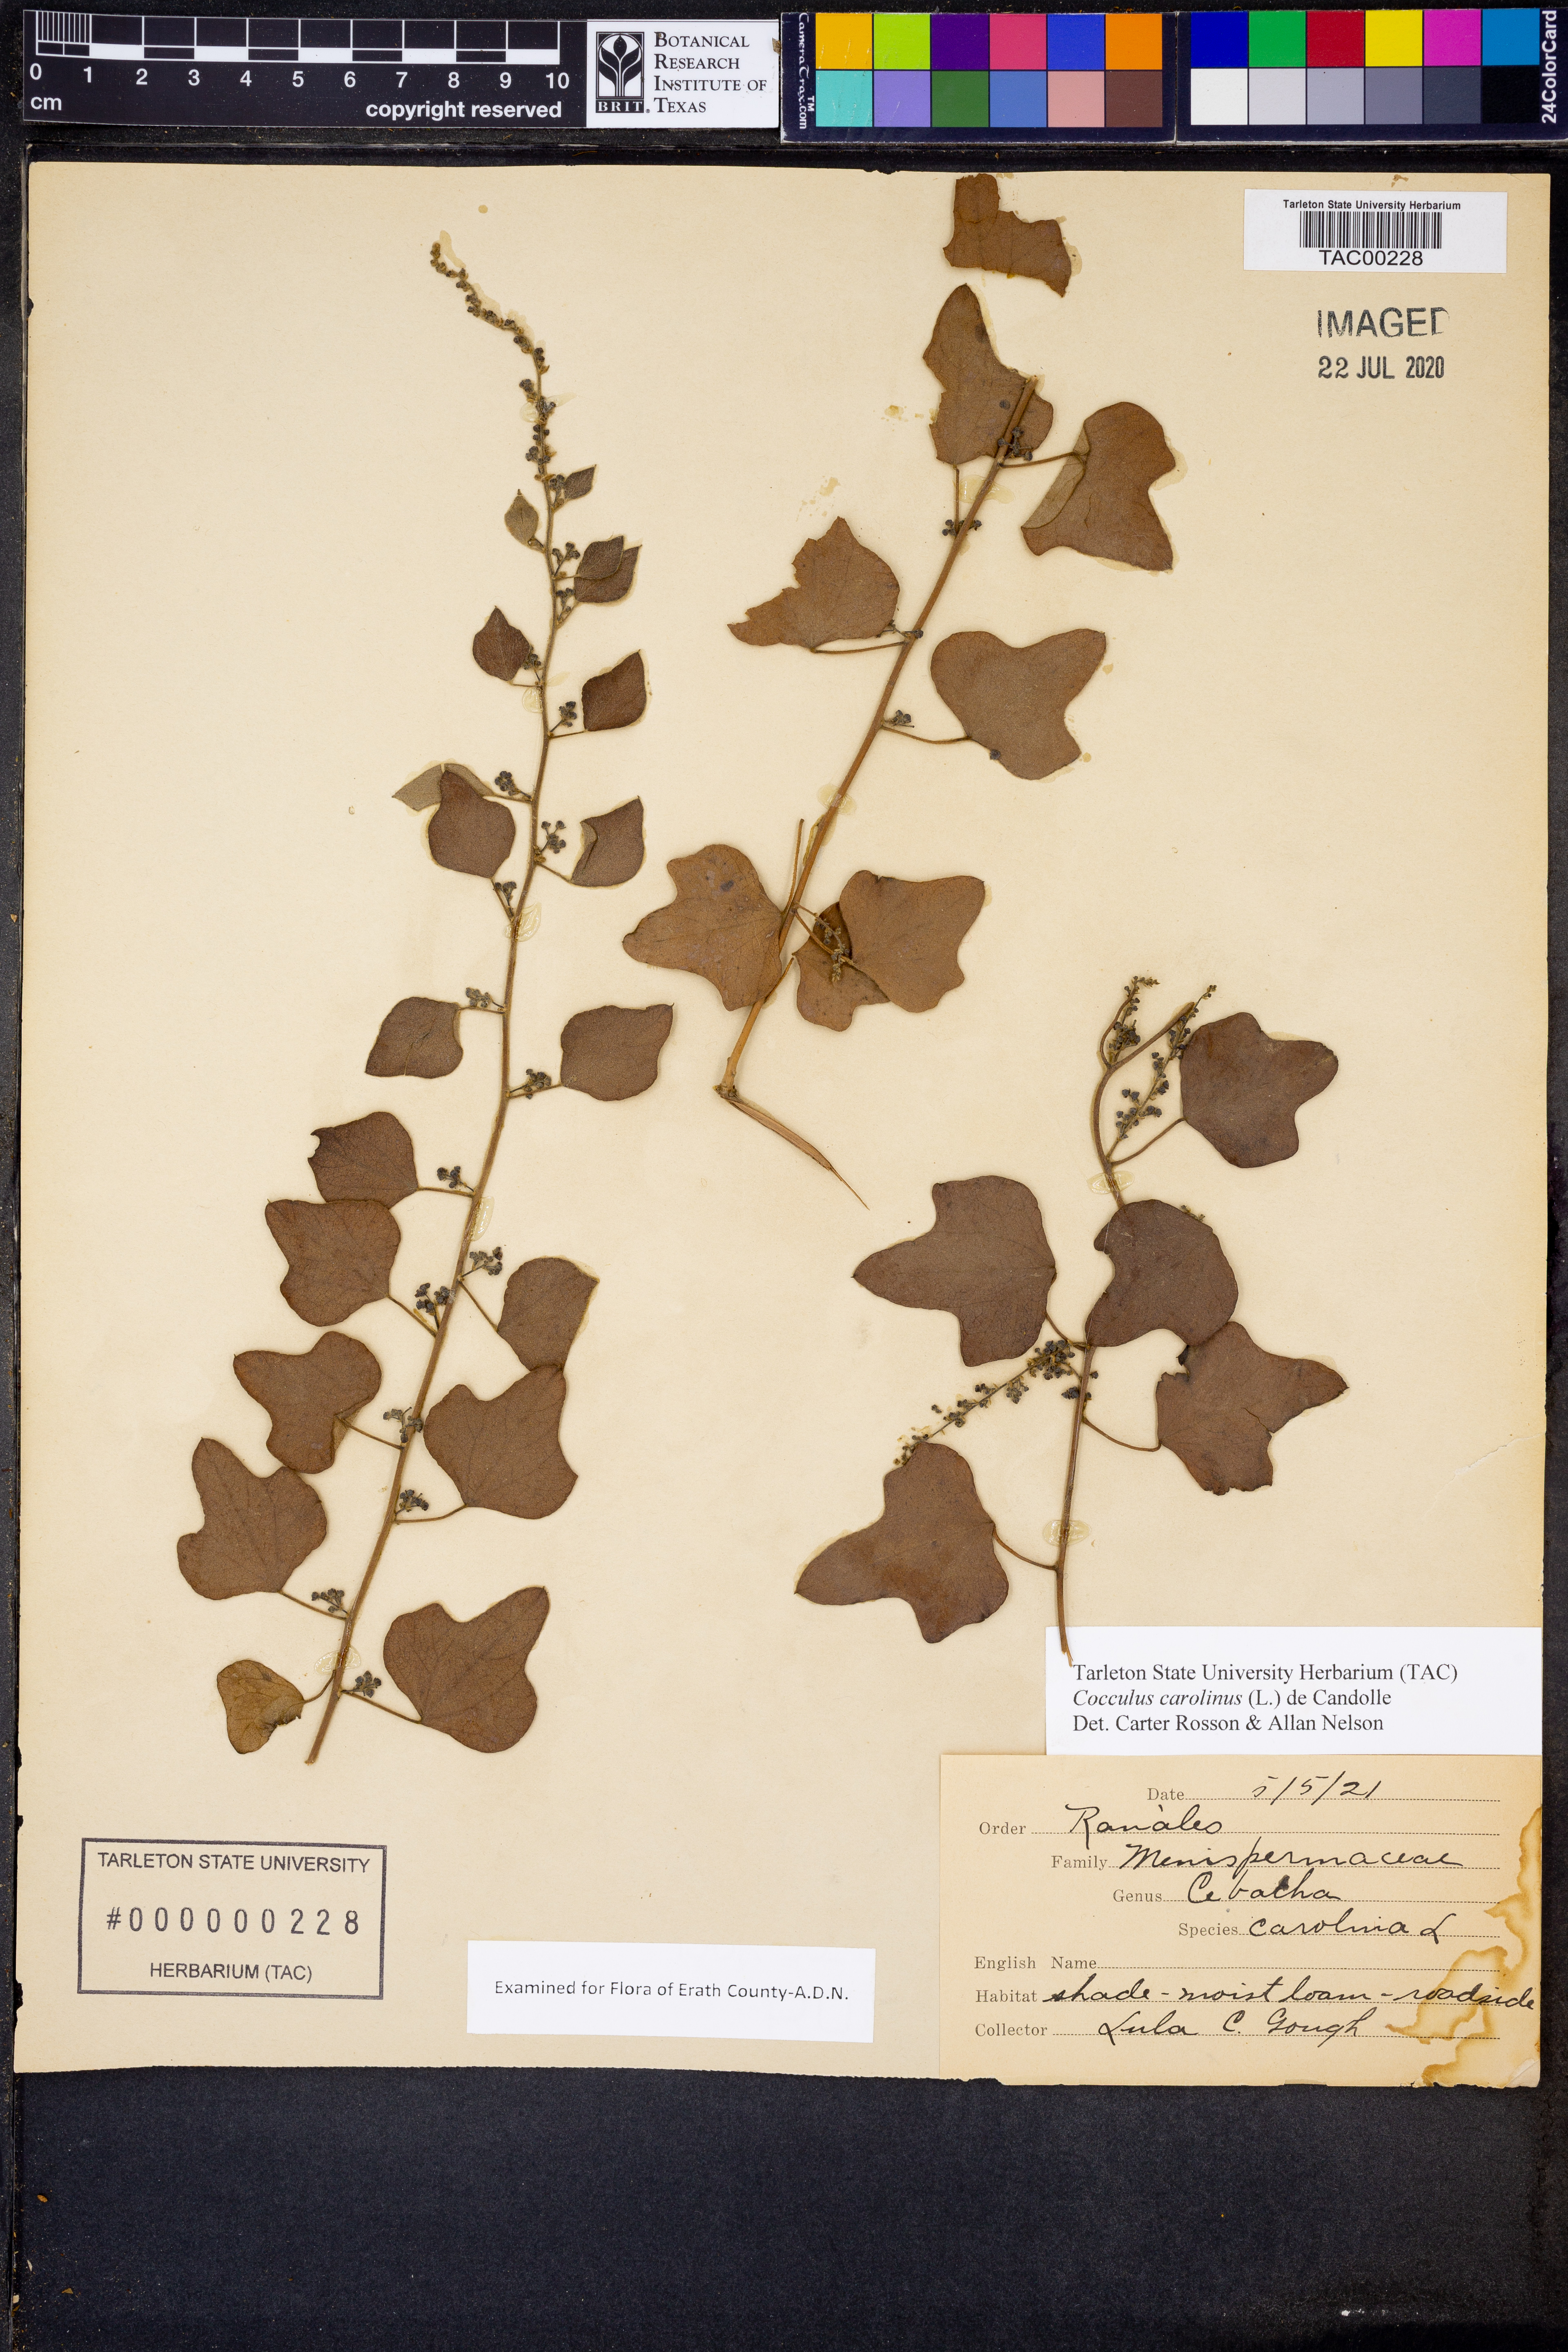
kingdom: Plantae
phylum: Tracheophyta
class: Magnoliopsida
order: Ranunculales
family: Menispermaceae
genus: Cocculus
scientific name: Cocculus carolinus
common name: Carolina moonseed
